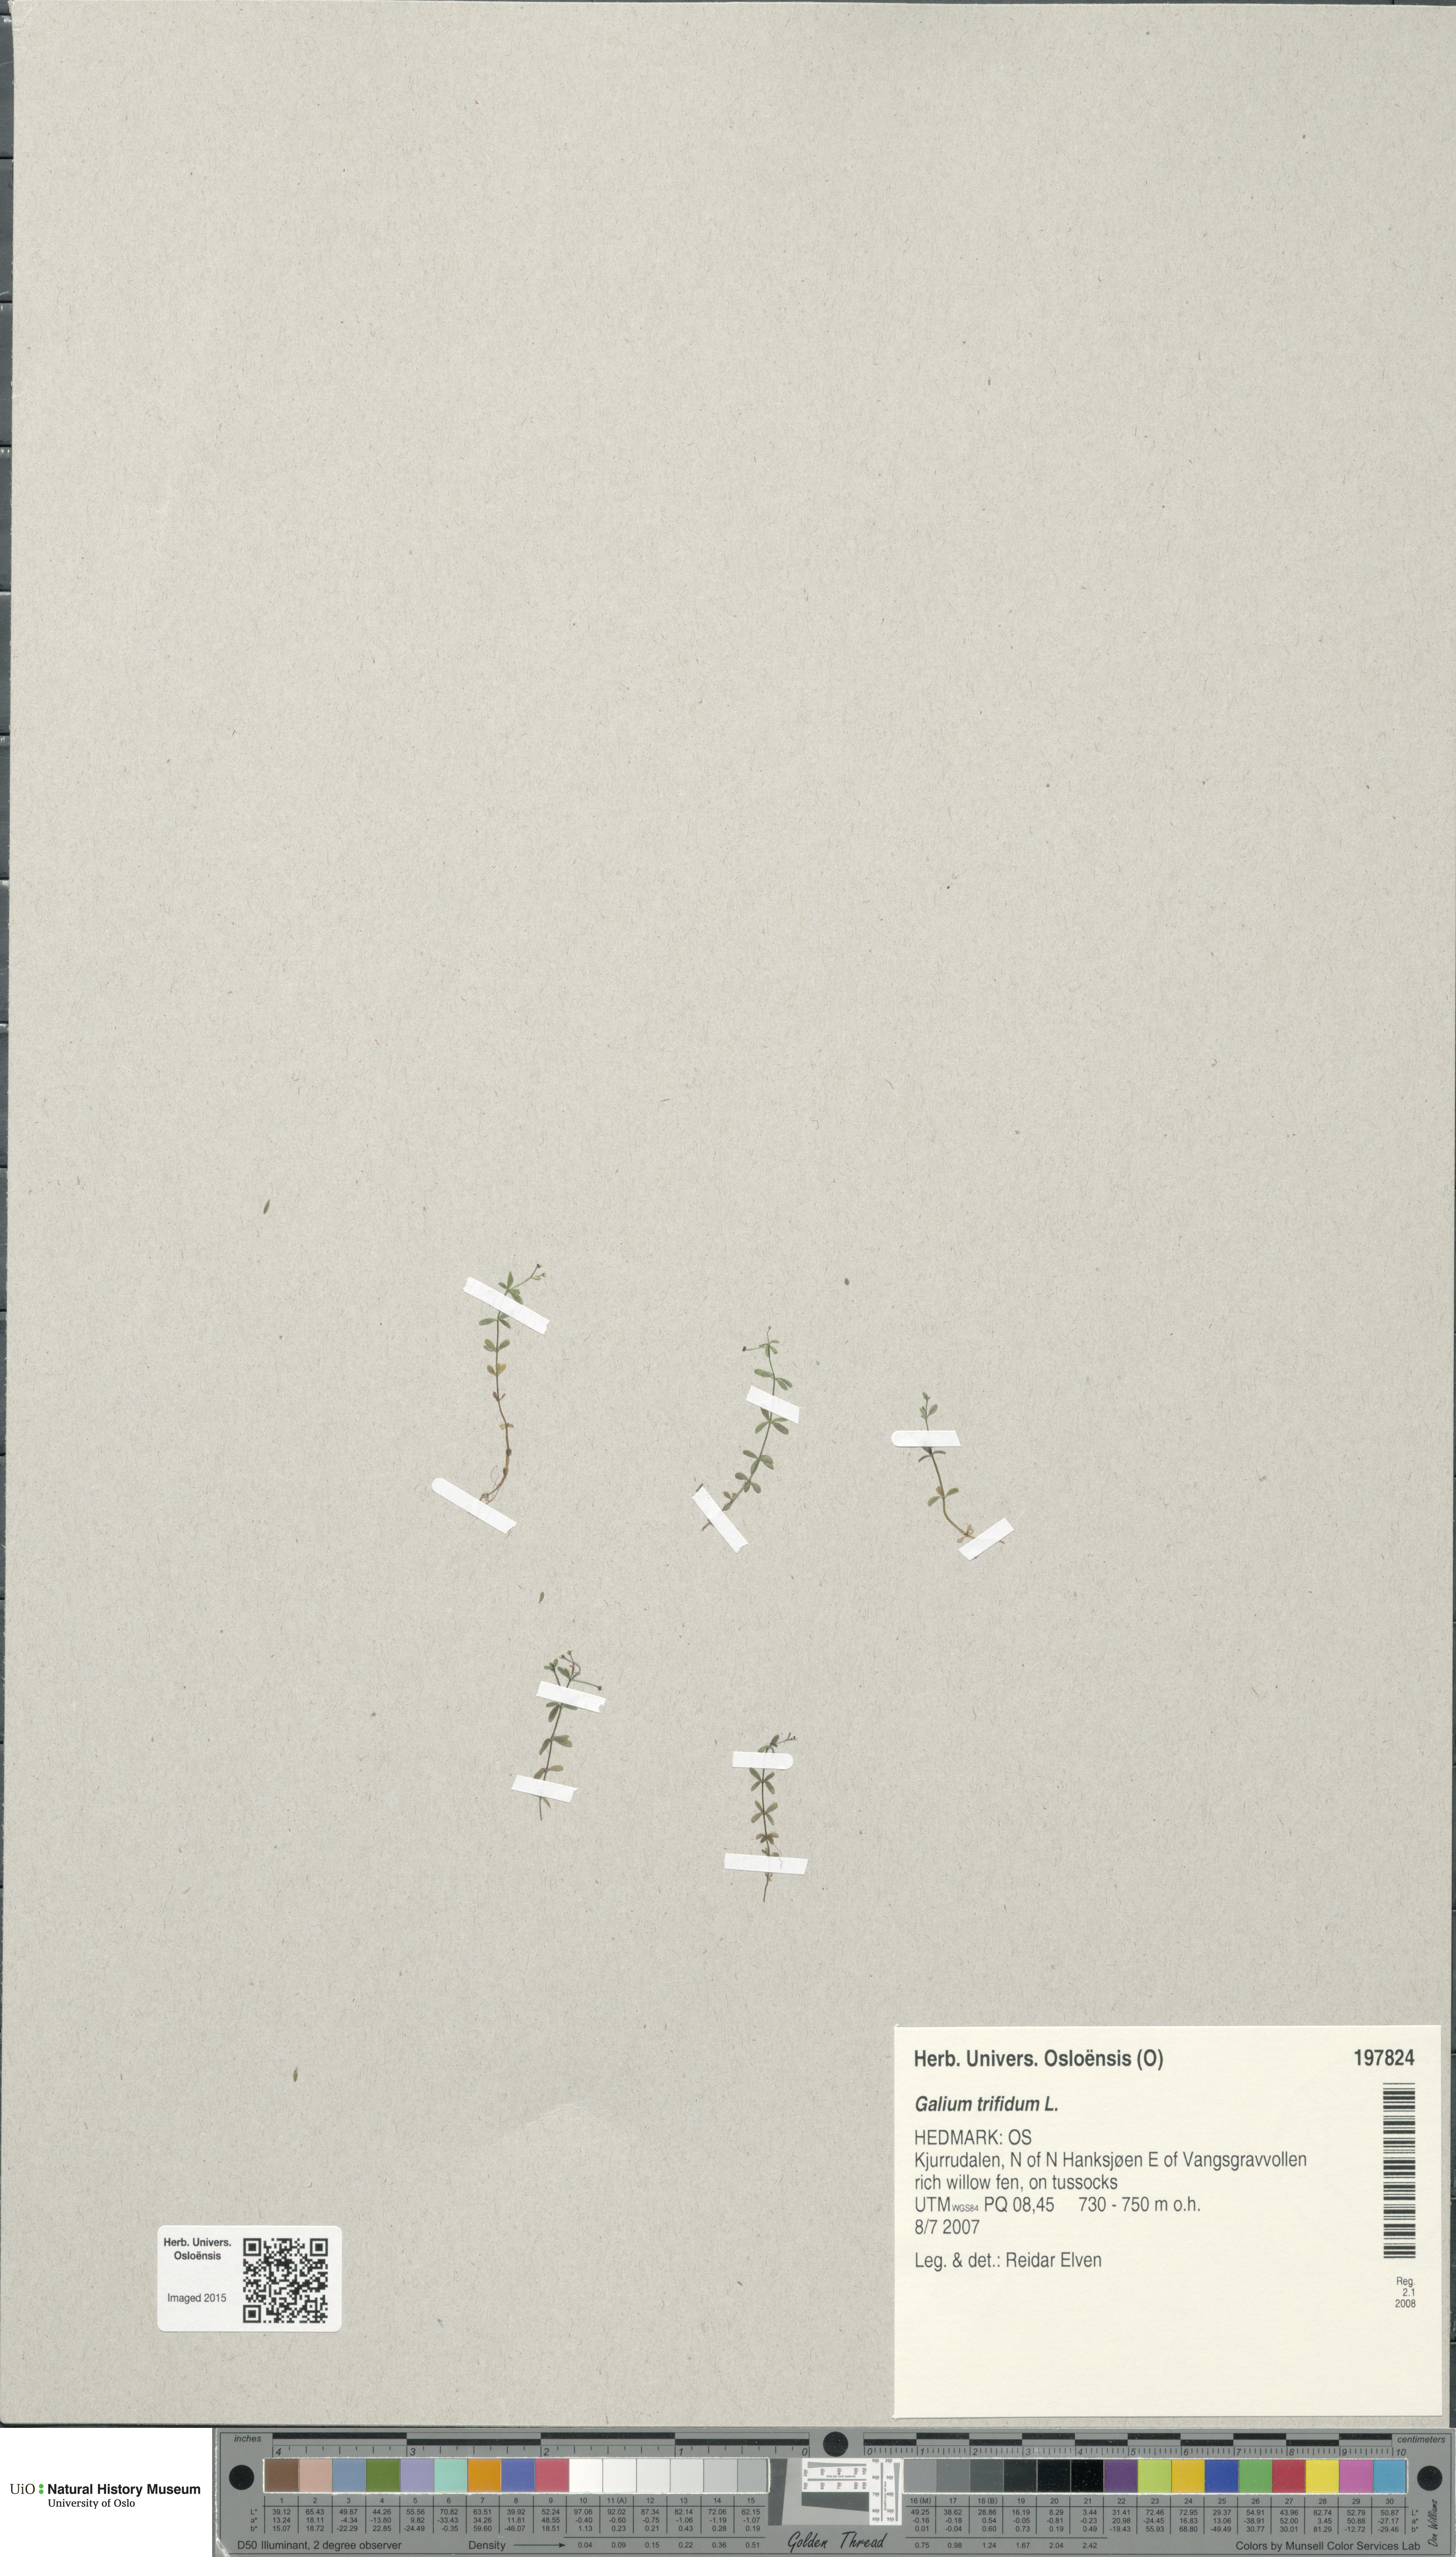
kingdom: Plantae
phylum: Tracheophyta
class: Magnoliopsida
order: Gentianales
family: Rubiaceae
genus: Galium
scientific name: Galium trifidum
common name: Small bedstraw
